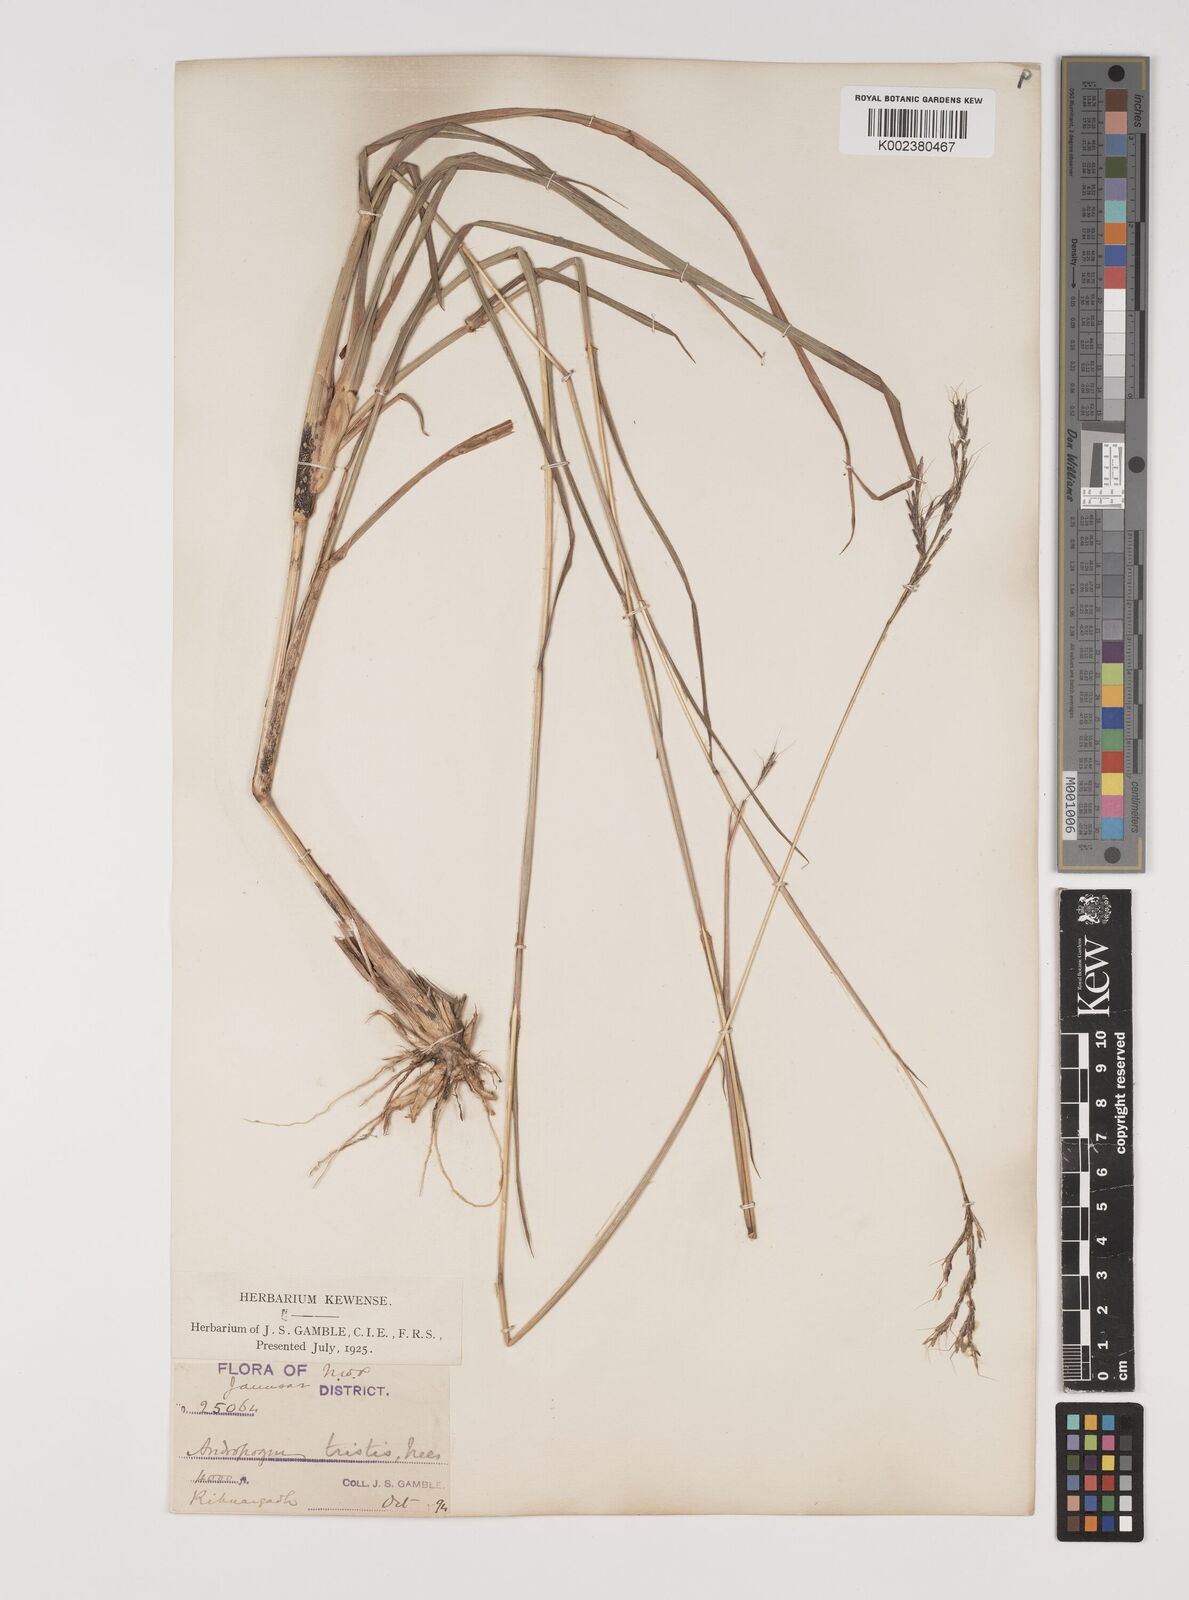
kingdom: Plantae
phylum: Tracheophyta
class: Liliopsida
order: Poales
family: Poaceae
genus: Bothriochloa
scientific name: Bothriochloa insculpta
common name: Creeping-bluegrass
